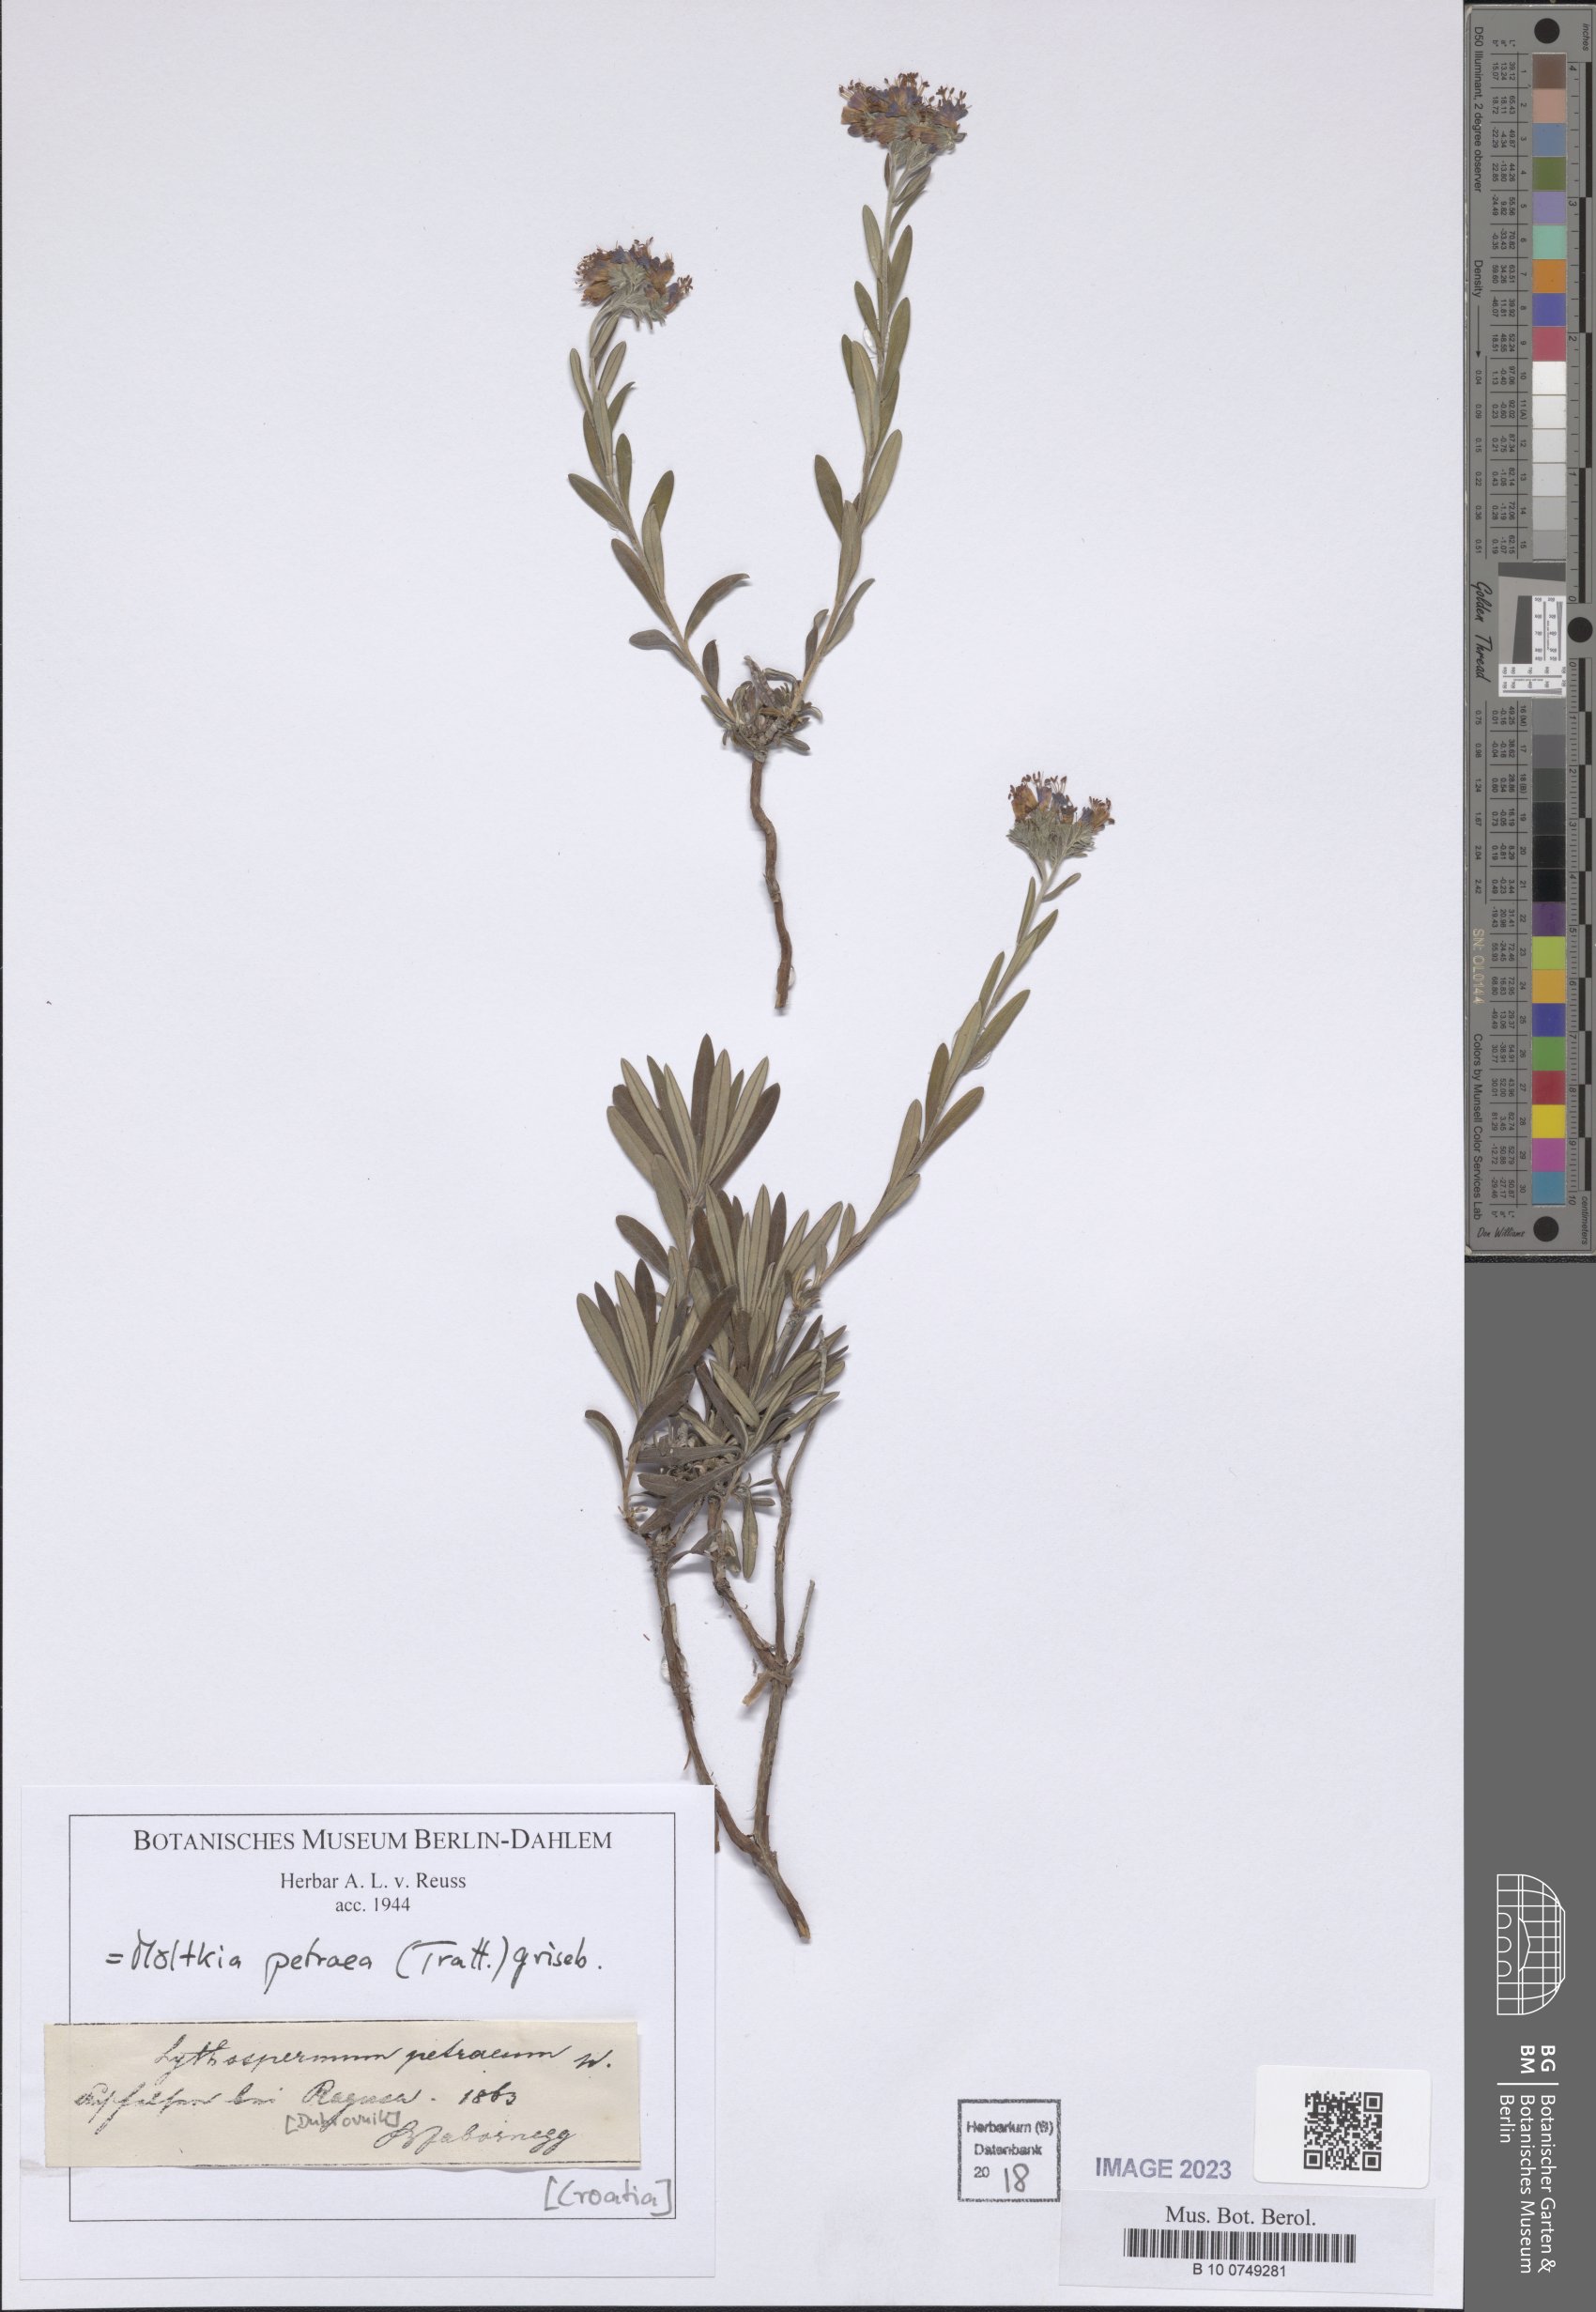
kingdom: Plantae
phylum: Tracheophyta
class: Magnoliopsida
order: Boraginales
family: Boraginaceae
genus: Moltkia
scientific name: Moltkia petraea
